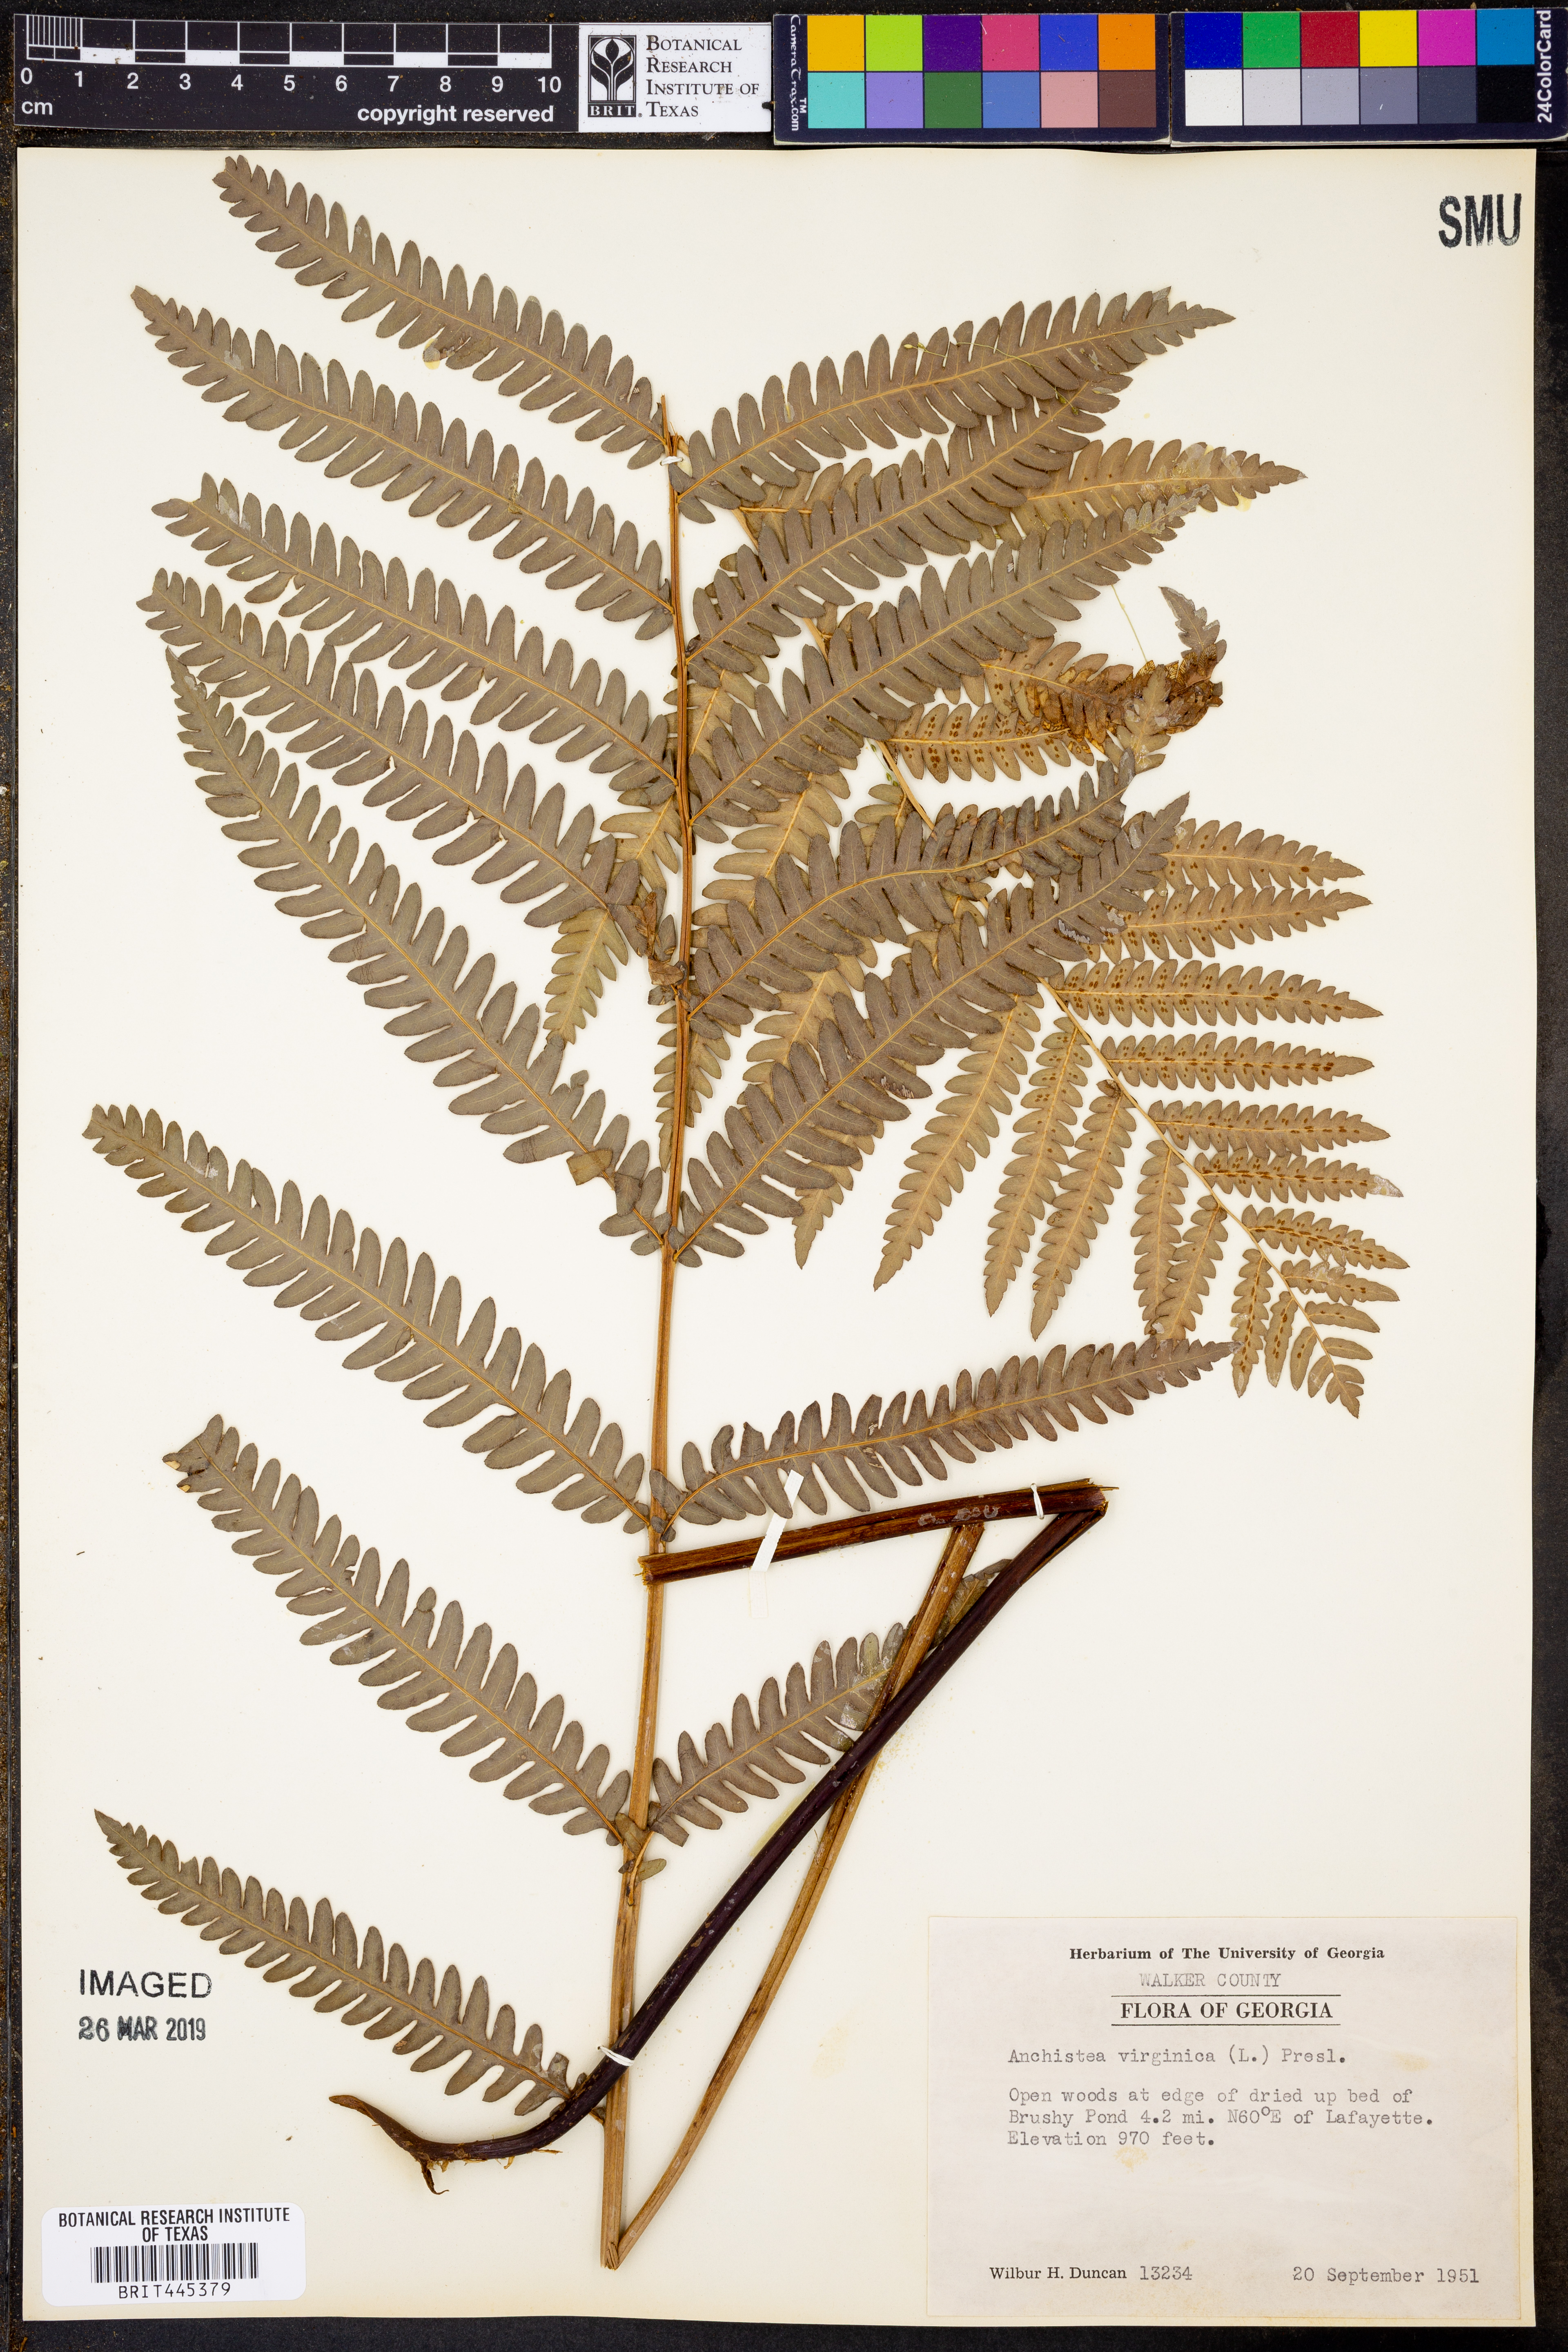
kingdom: Plantae
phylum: Tracheophyta
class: Polypodiopsida
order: Polypodiales
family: Blechnaceae
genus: Anchistea
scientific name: Anchistea virginica
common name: Virginia chain fern
